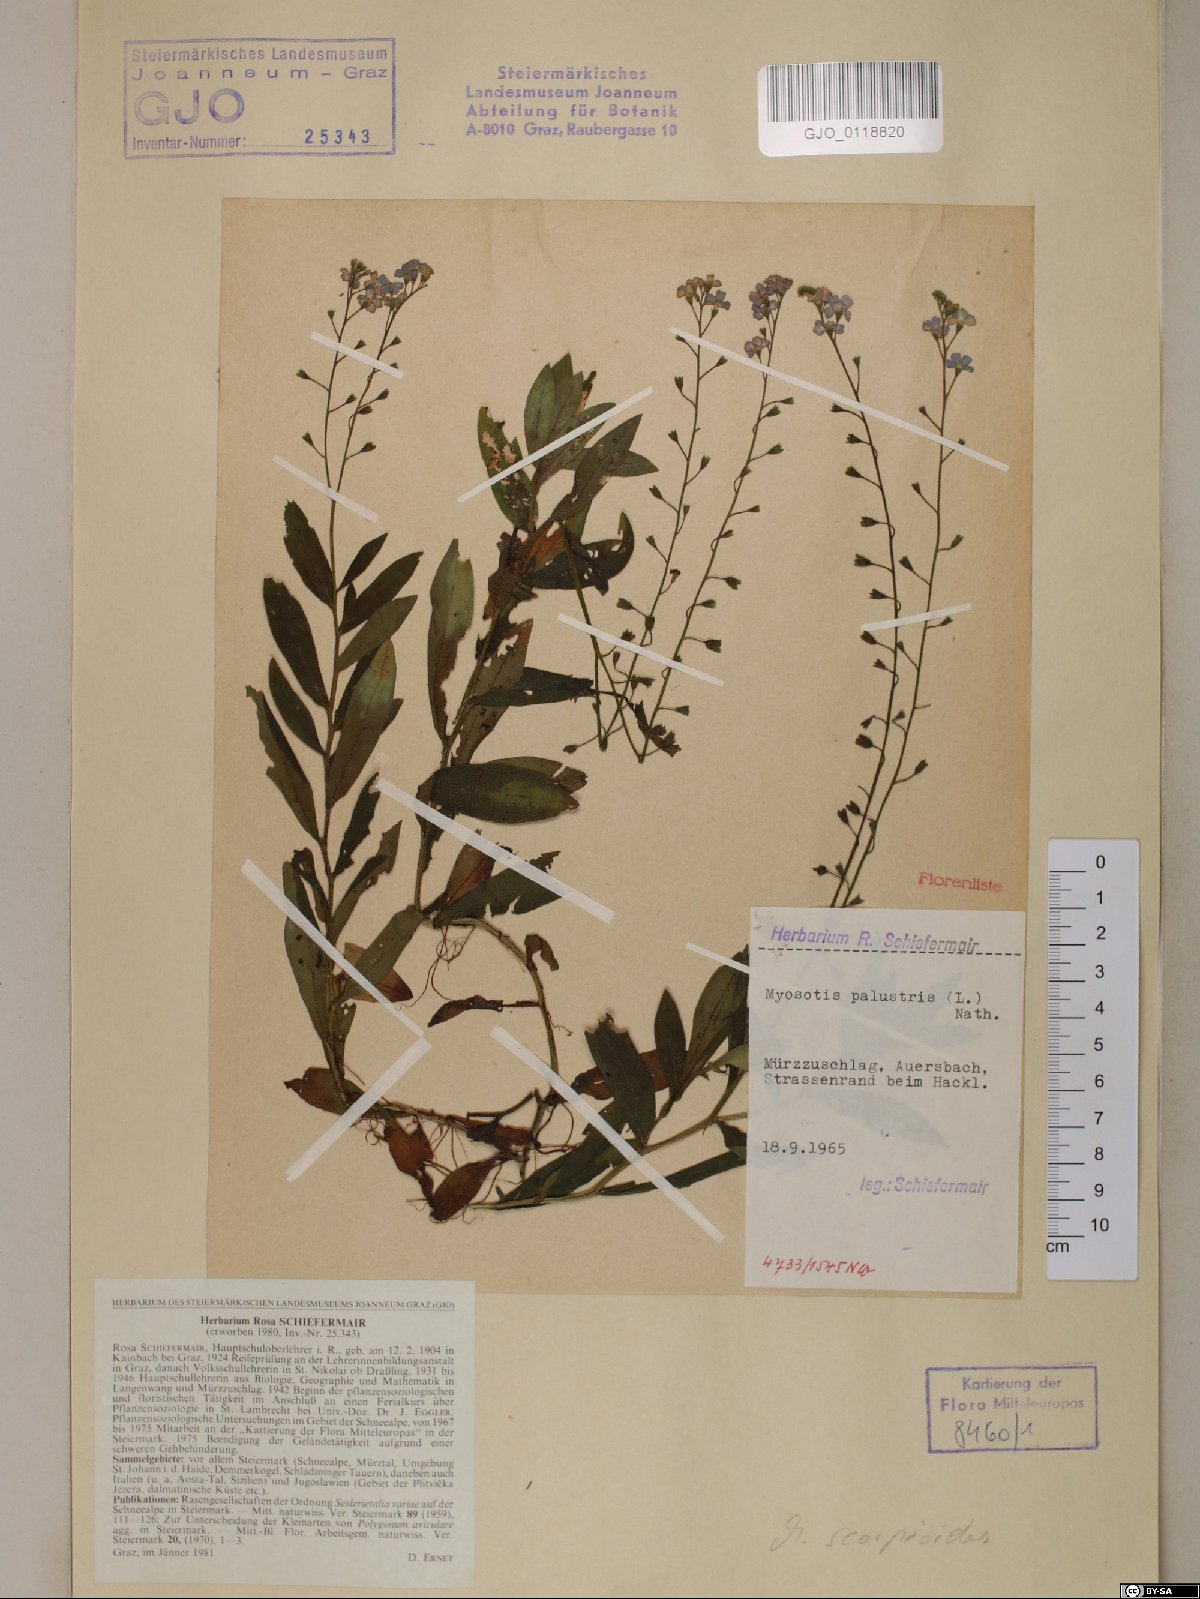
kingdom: Plantae
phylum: Tracheophyta
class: Magnoliopsida
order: Boraginales
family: Boraginaceae
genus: Myosotis
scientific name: Myosotis scorpioides
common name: Water forget-me-not
